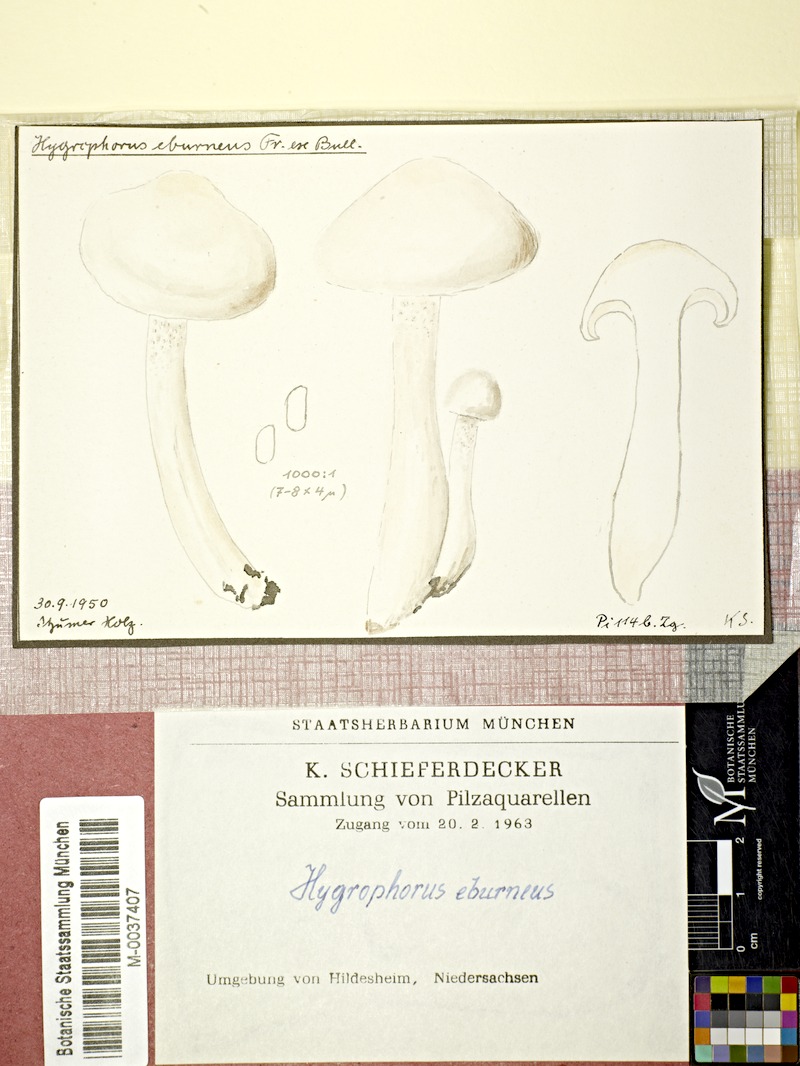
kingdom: Fungi
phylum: Basidiomycota
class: Agaricomycetes
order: Agaricales
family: Hygrophoraceae
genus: Hygrophorus
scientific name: Hygrophorus eburneus
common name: Ivory wax-cap
